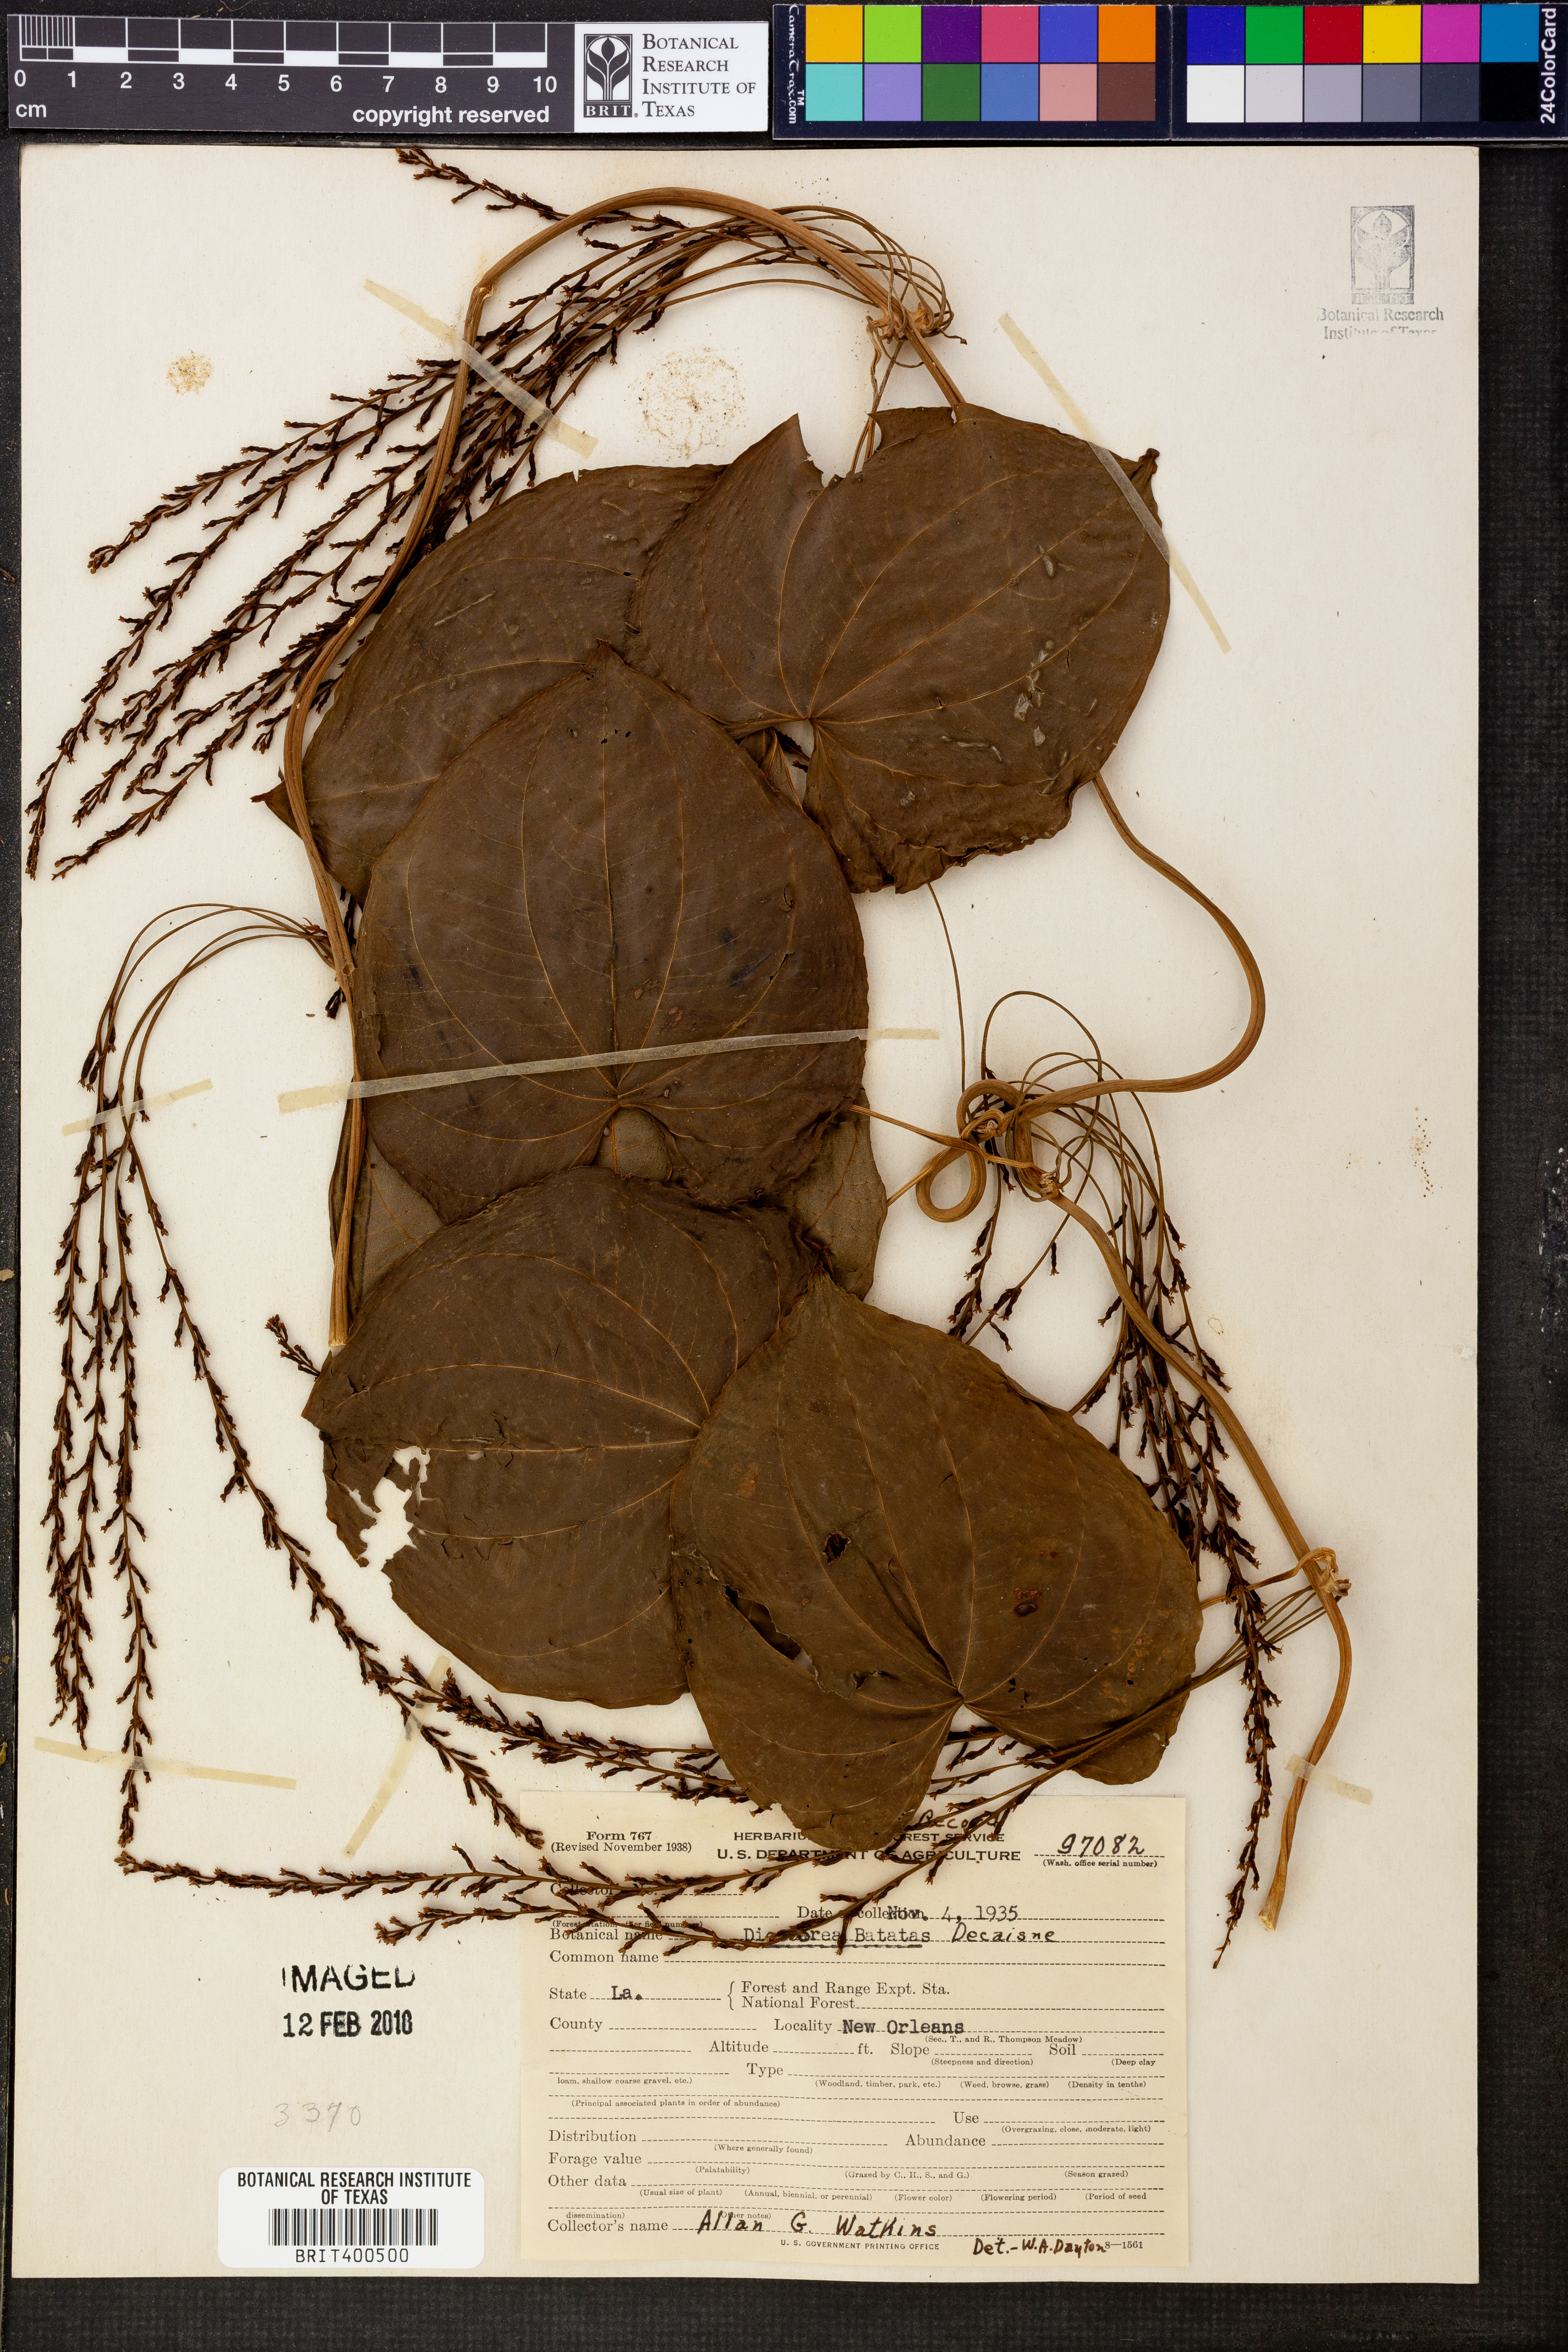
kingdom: Plantae
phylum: Tracheophyta
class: Liliopsida
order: Dioscoreales
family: Dioscoreaceae
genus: Dioscorea
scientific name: Dioscorea polystachya
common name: Chinese yam
